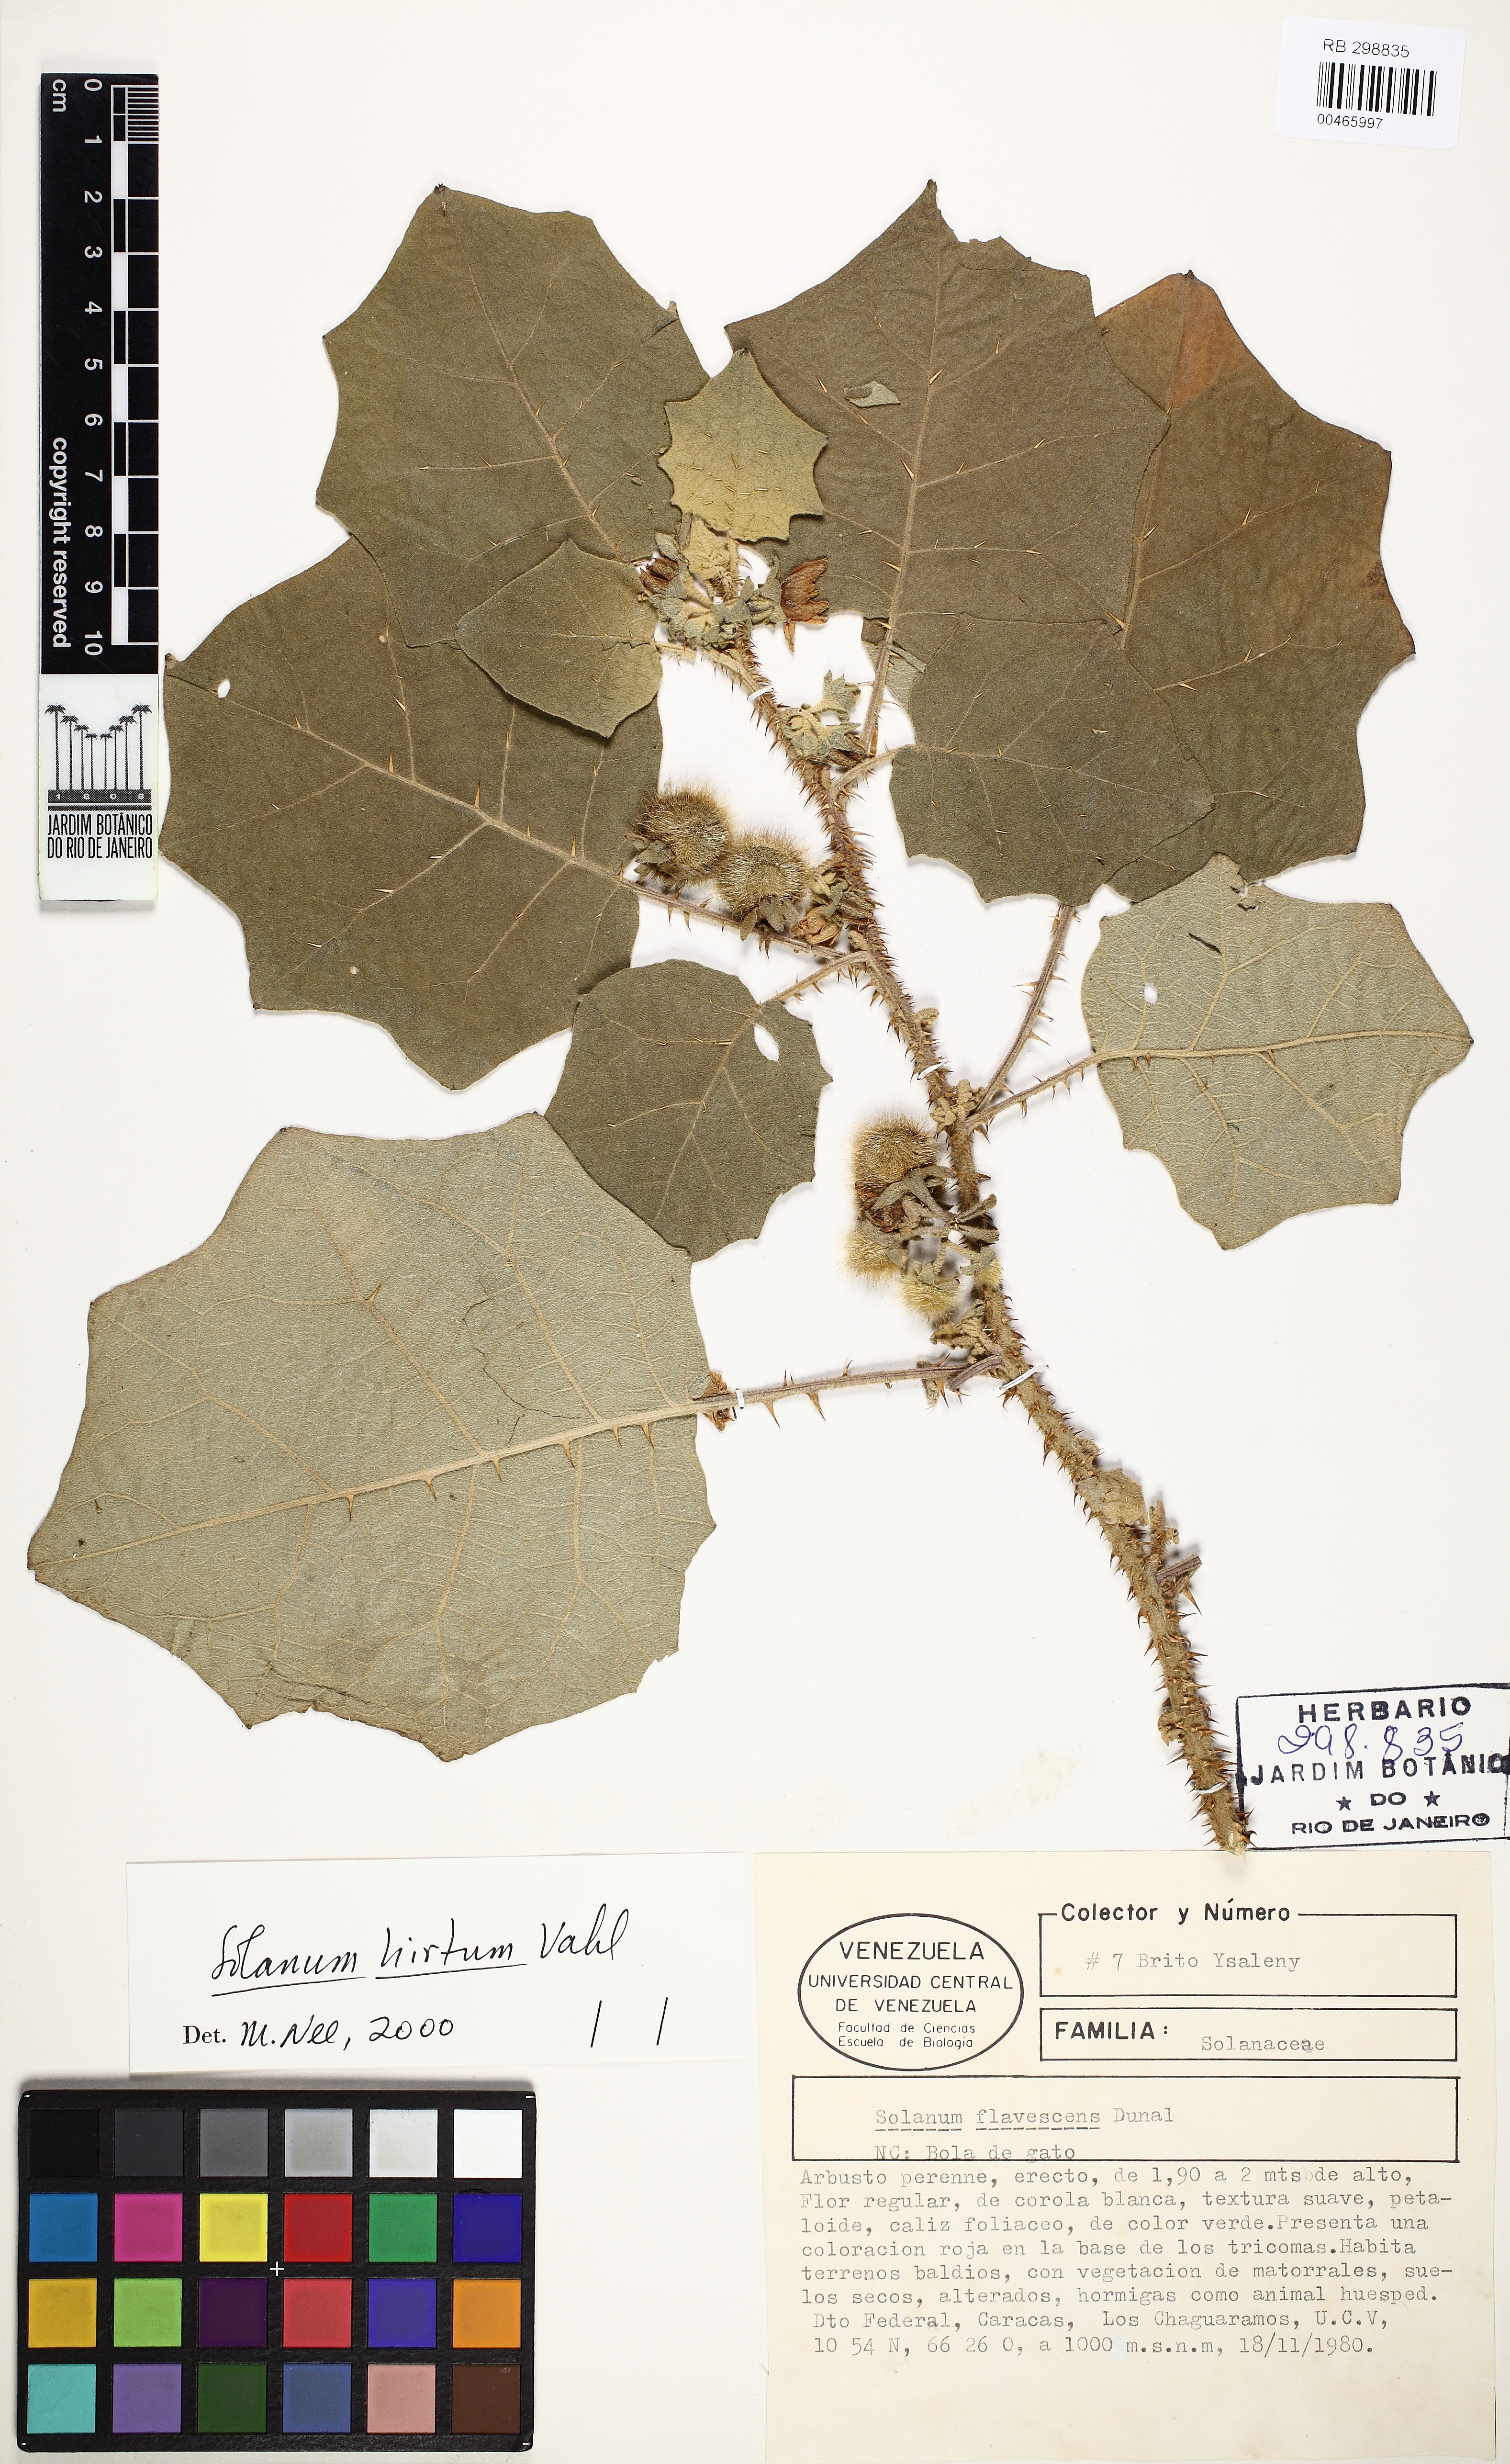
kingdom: Plantae
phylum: Tracheophyta
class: Magnoliopsida
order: Solanales
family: Solanaceae
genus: Solanum
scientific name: Solanum hirtum
